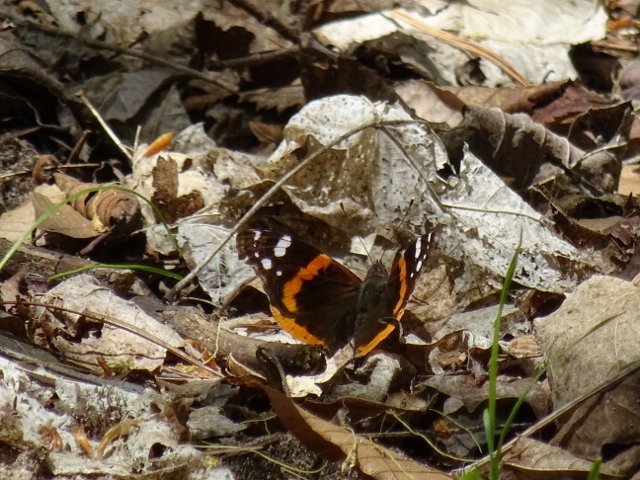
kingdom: Animalia
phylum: Arthropoda
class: Insecta
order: Lepidoptera
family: Nymphalidae
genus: Vanessa
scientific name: Vanessa atalanta
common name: Red Admiral
